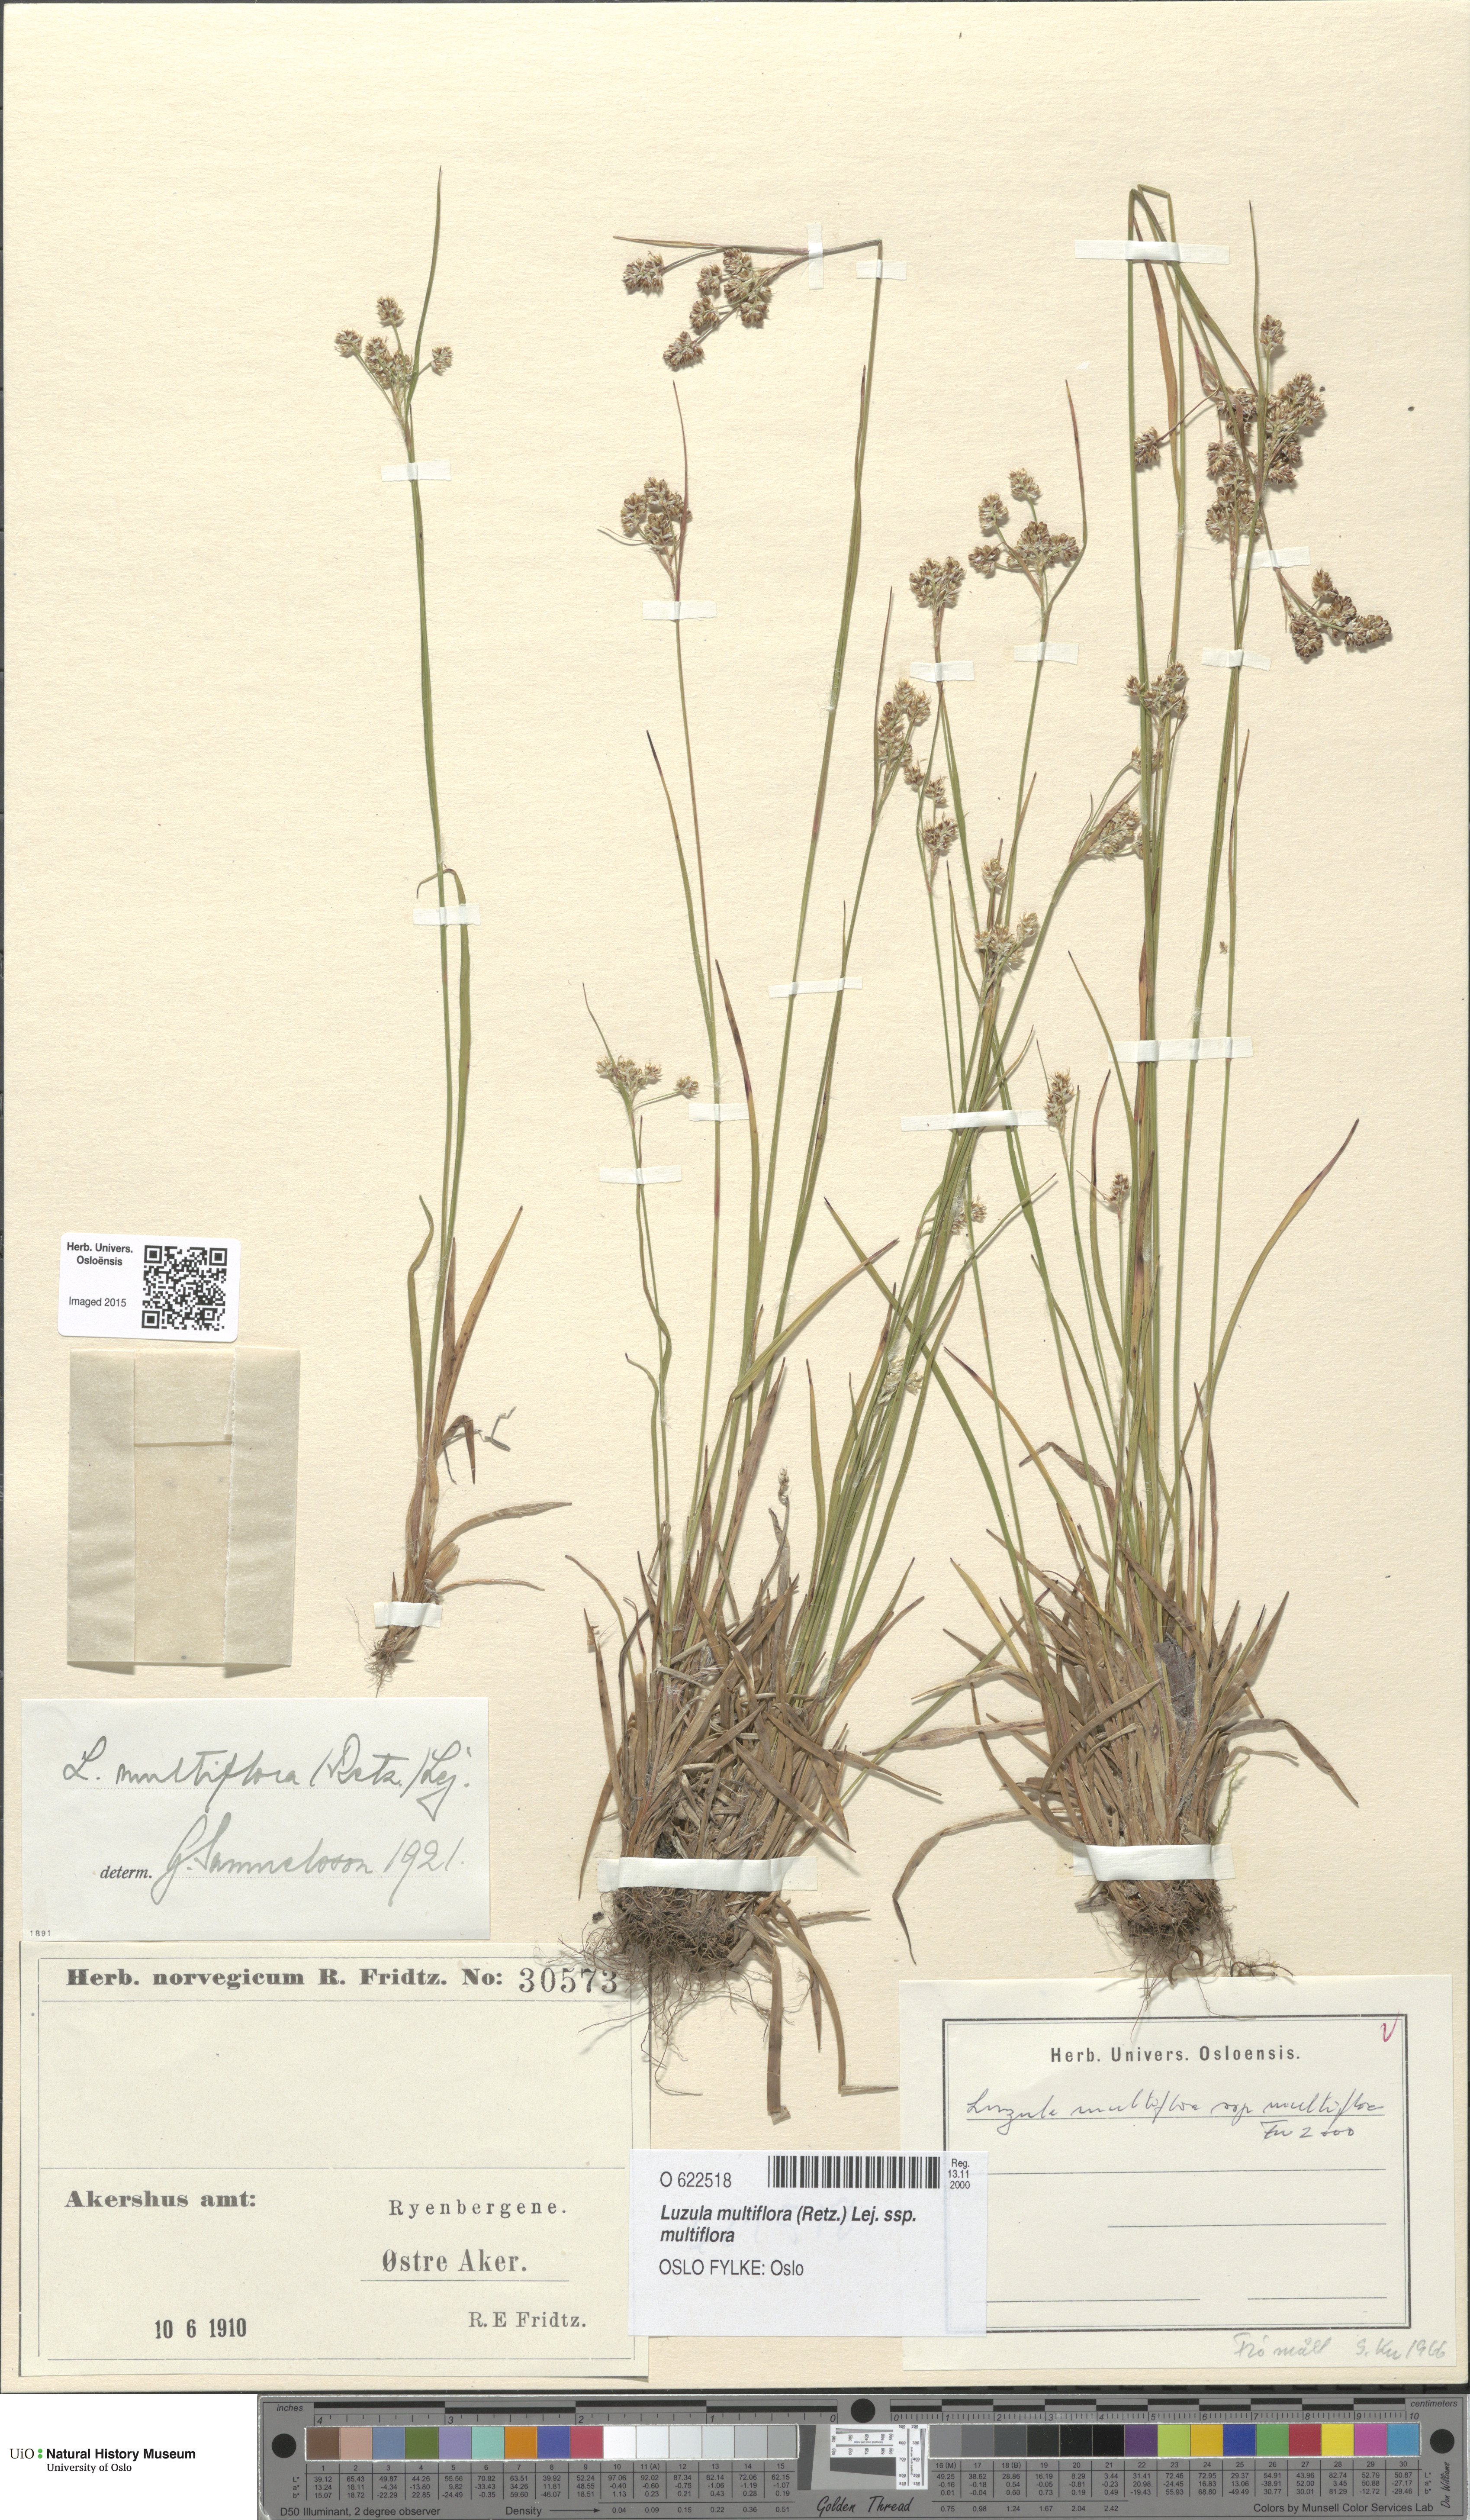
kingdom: Plantae
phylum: Tracheophyta
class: Liliopsida
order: Poales
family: Juncaceae
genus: Luzula
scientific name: Luzula multiflora
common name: Heath wood-rush
